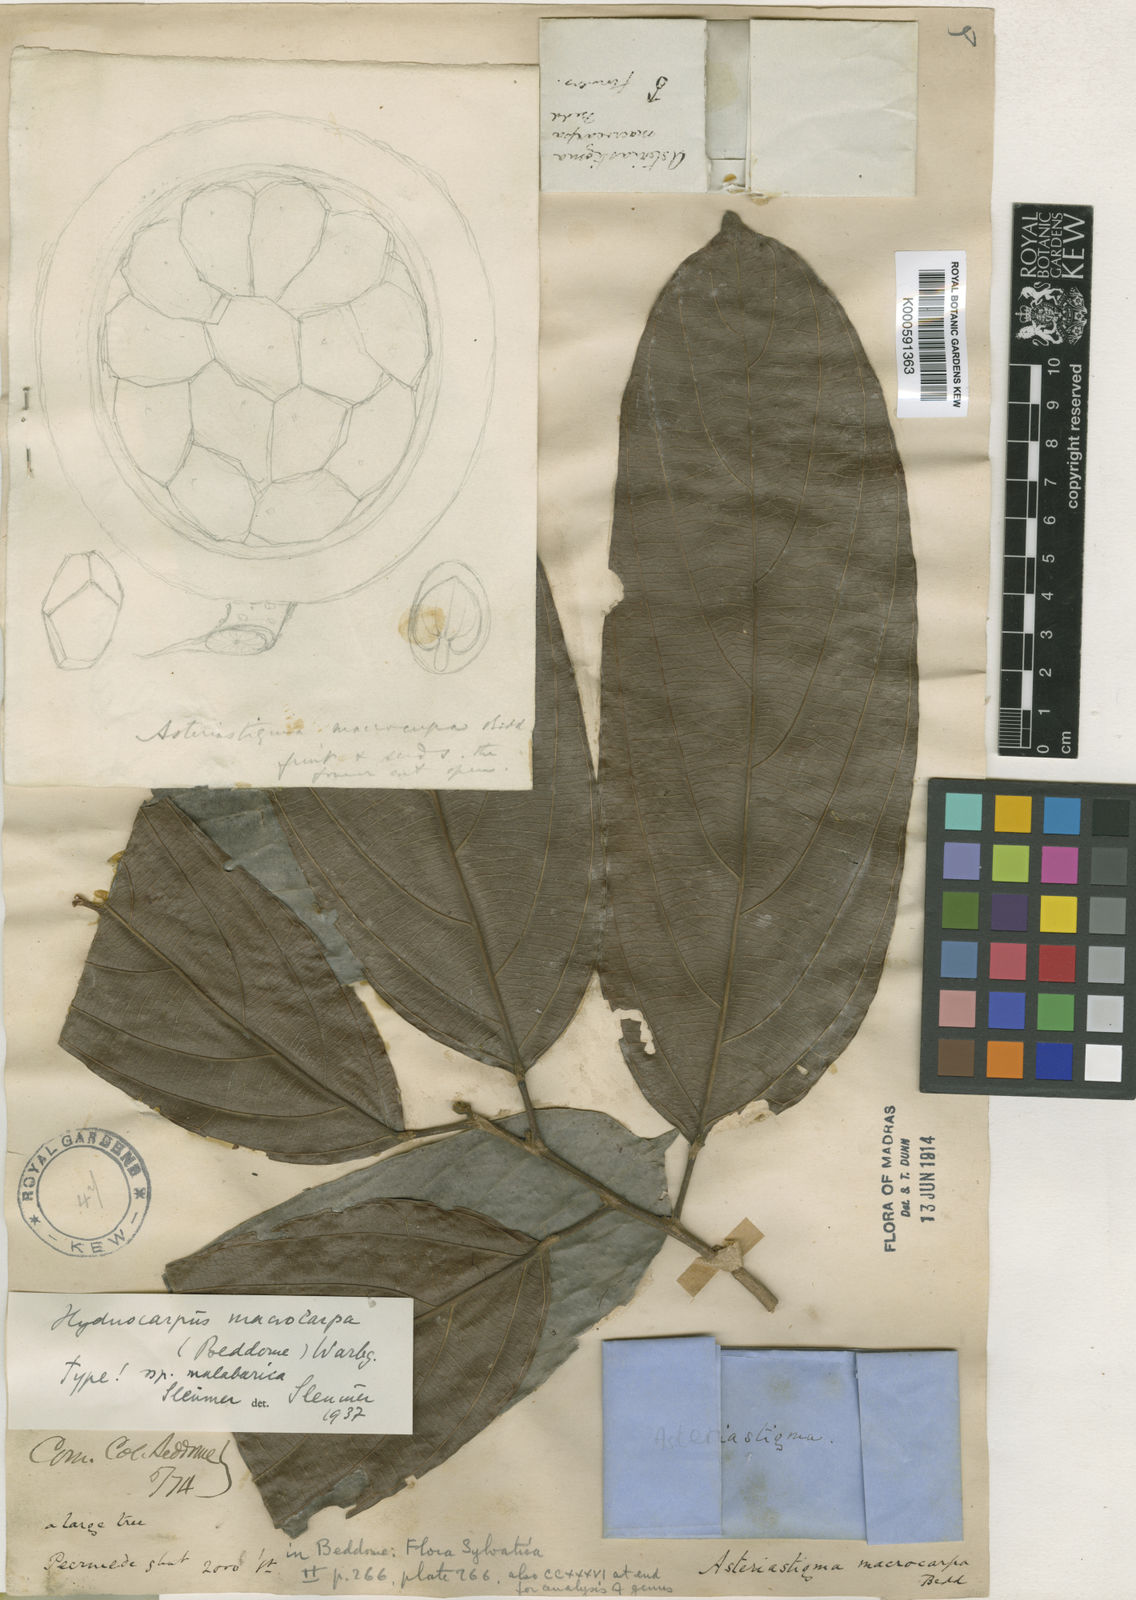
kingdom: Plantae
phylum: Tracheophyta
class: Magnoliopsida
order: Malpighiales
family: Achariaceae
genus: Hydnocarpus
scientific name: Hydnocarpus macrocarpus
